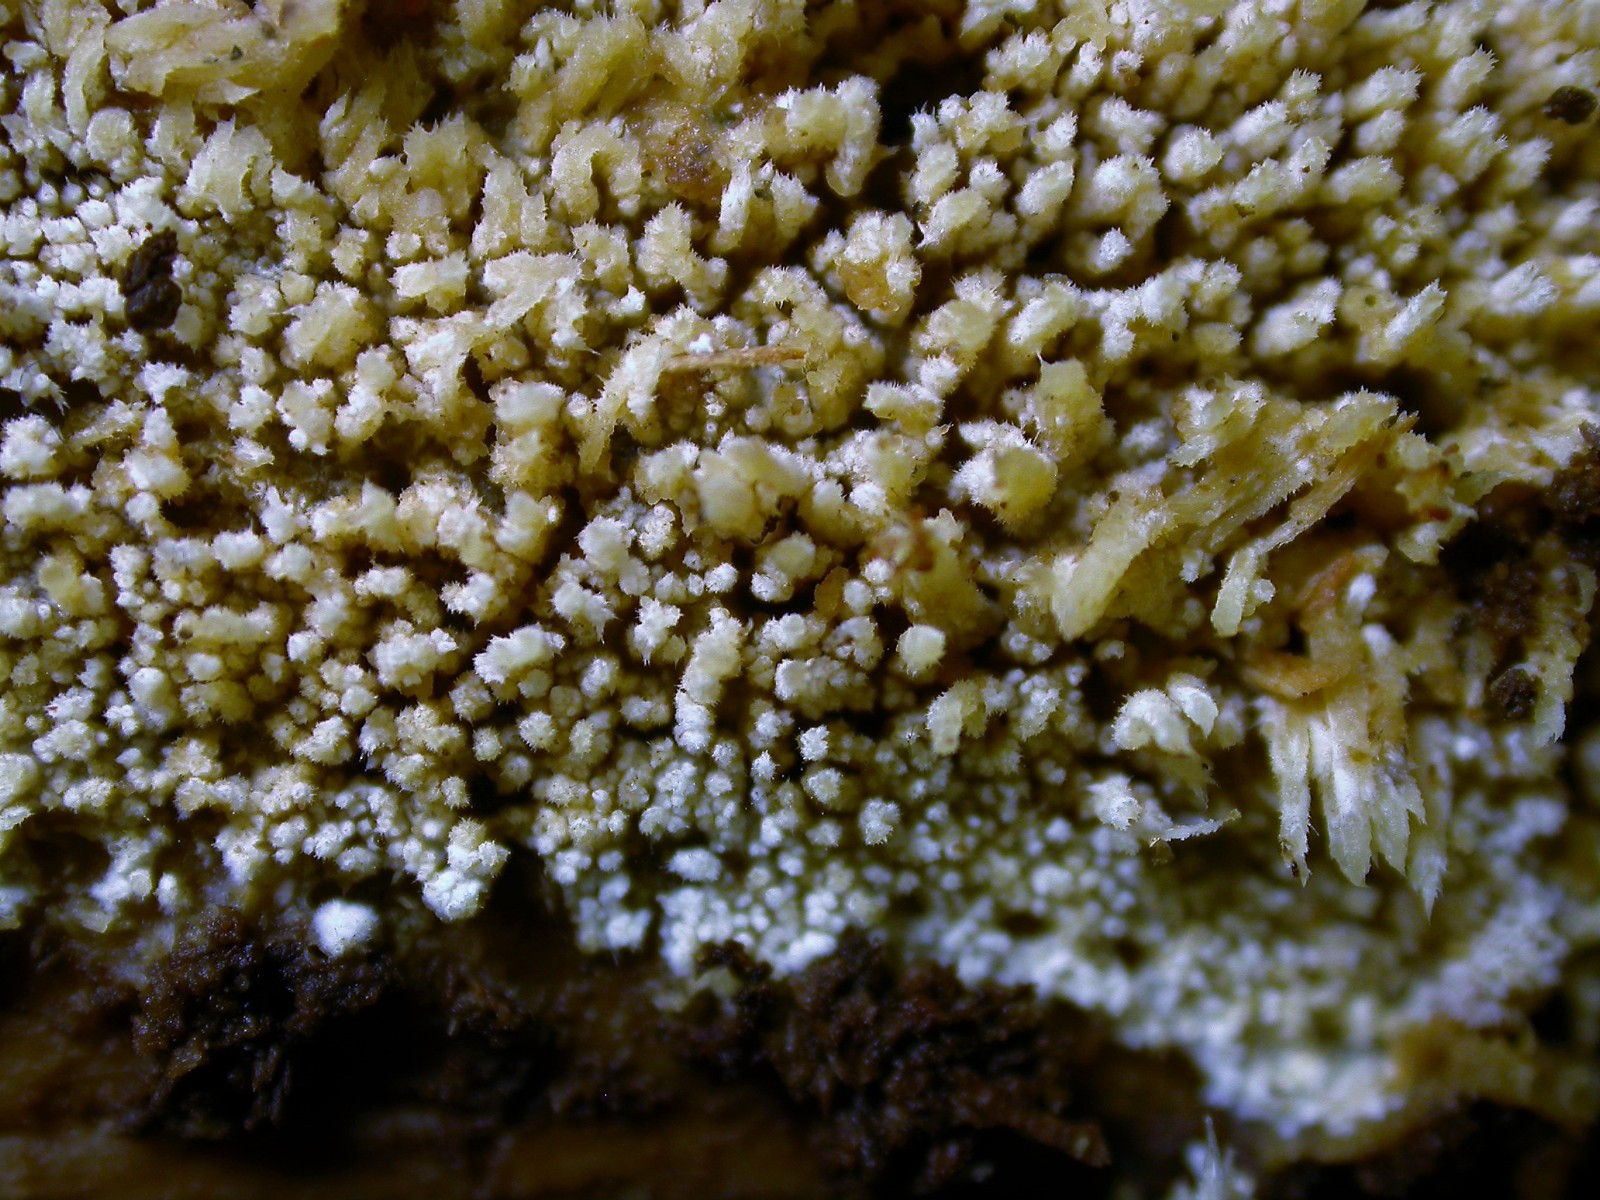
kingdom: Fungi
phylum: Basidiomycota
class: Agaricomycetes
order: Hymenochaetales
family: Hyphodontiaceae
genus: Hyphodontia
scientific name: Hyphodontia barba-jovis
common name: skægget tandsvamp
